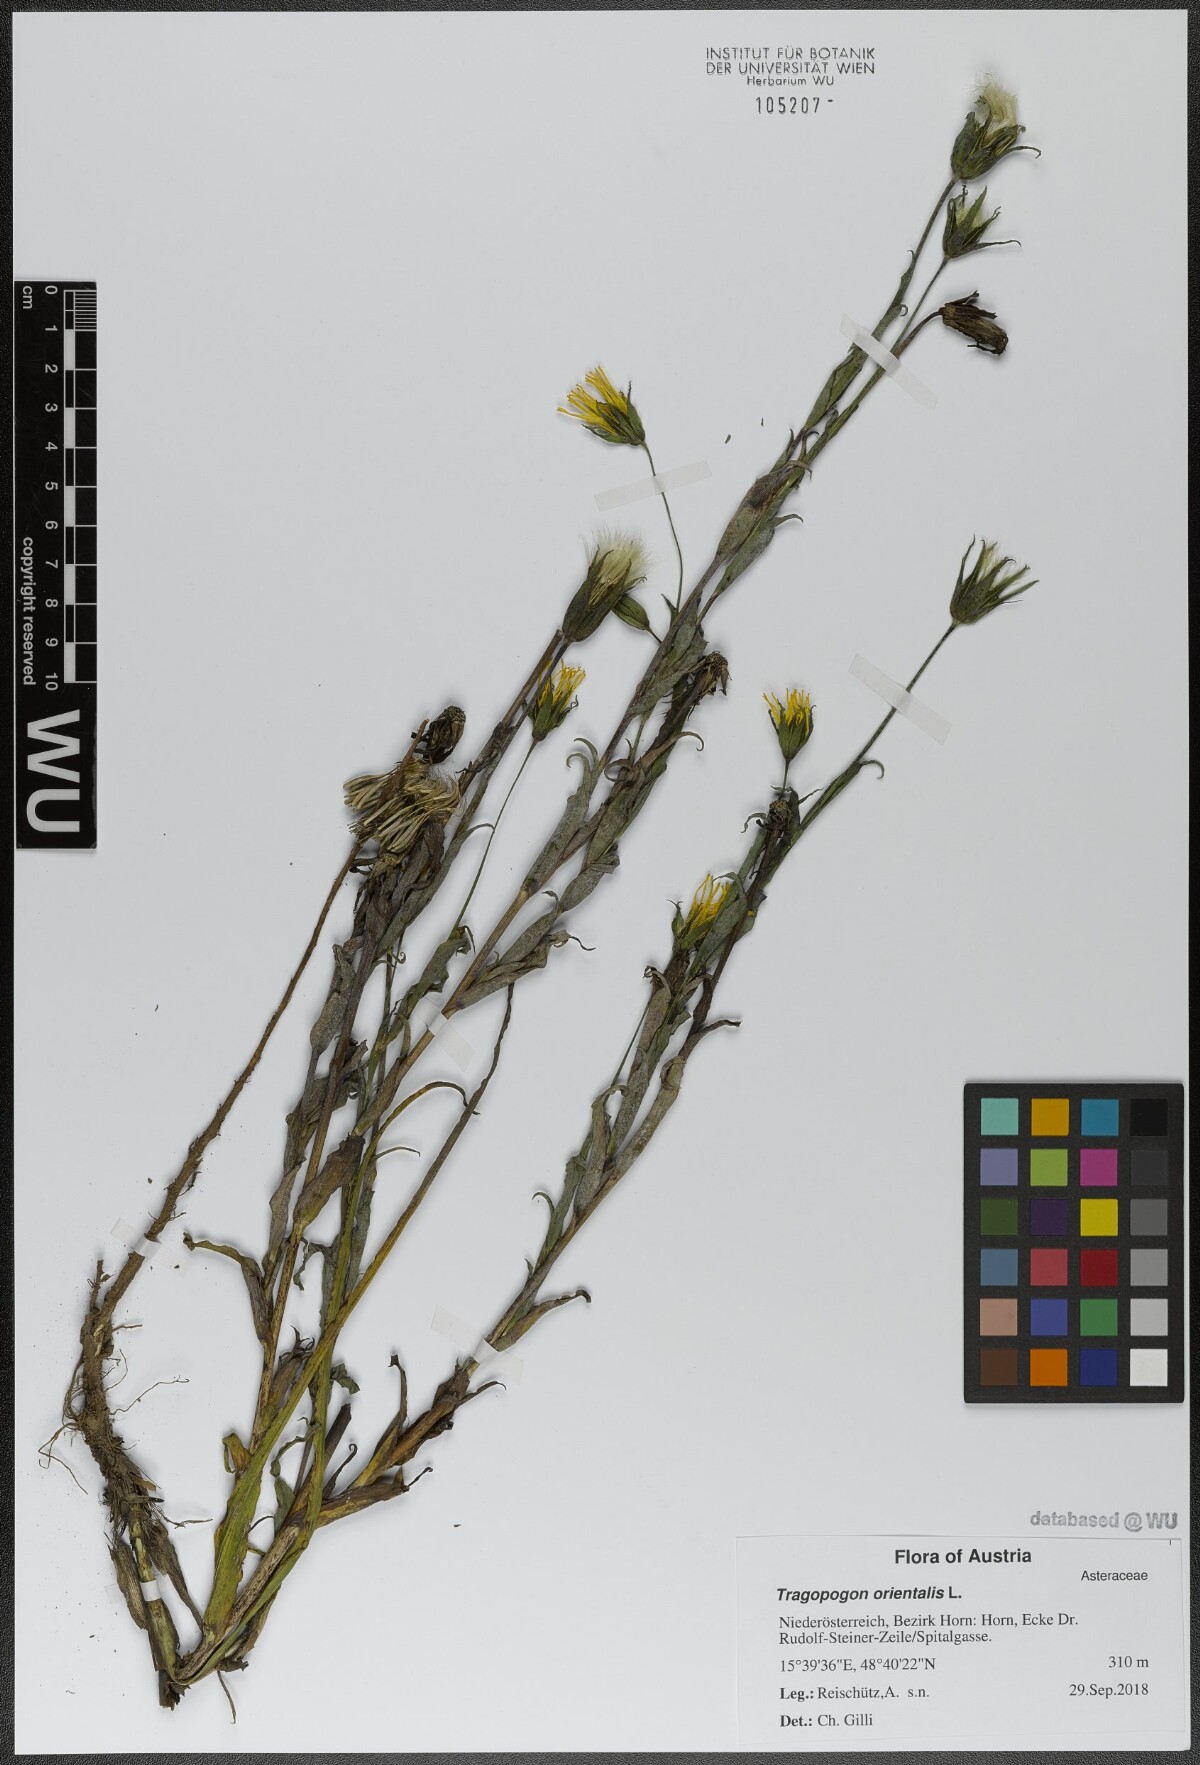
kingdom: Plantae
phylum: Tracheophyta
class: Magnoliopsida
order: Asterales
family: Asteraceae
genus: Tragopogon
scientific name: Tragopogon orientalis
